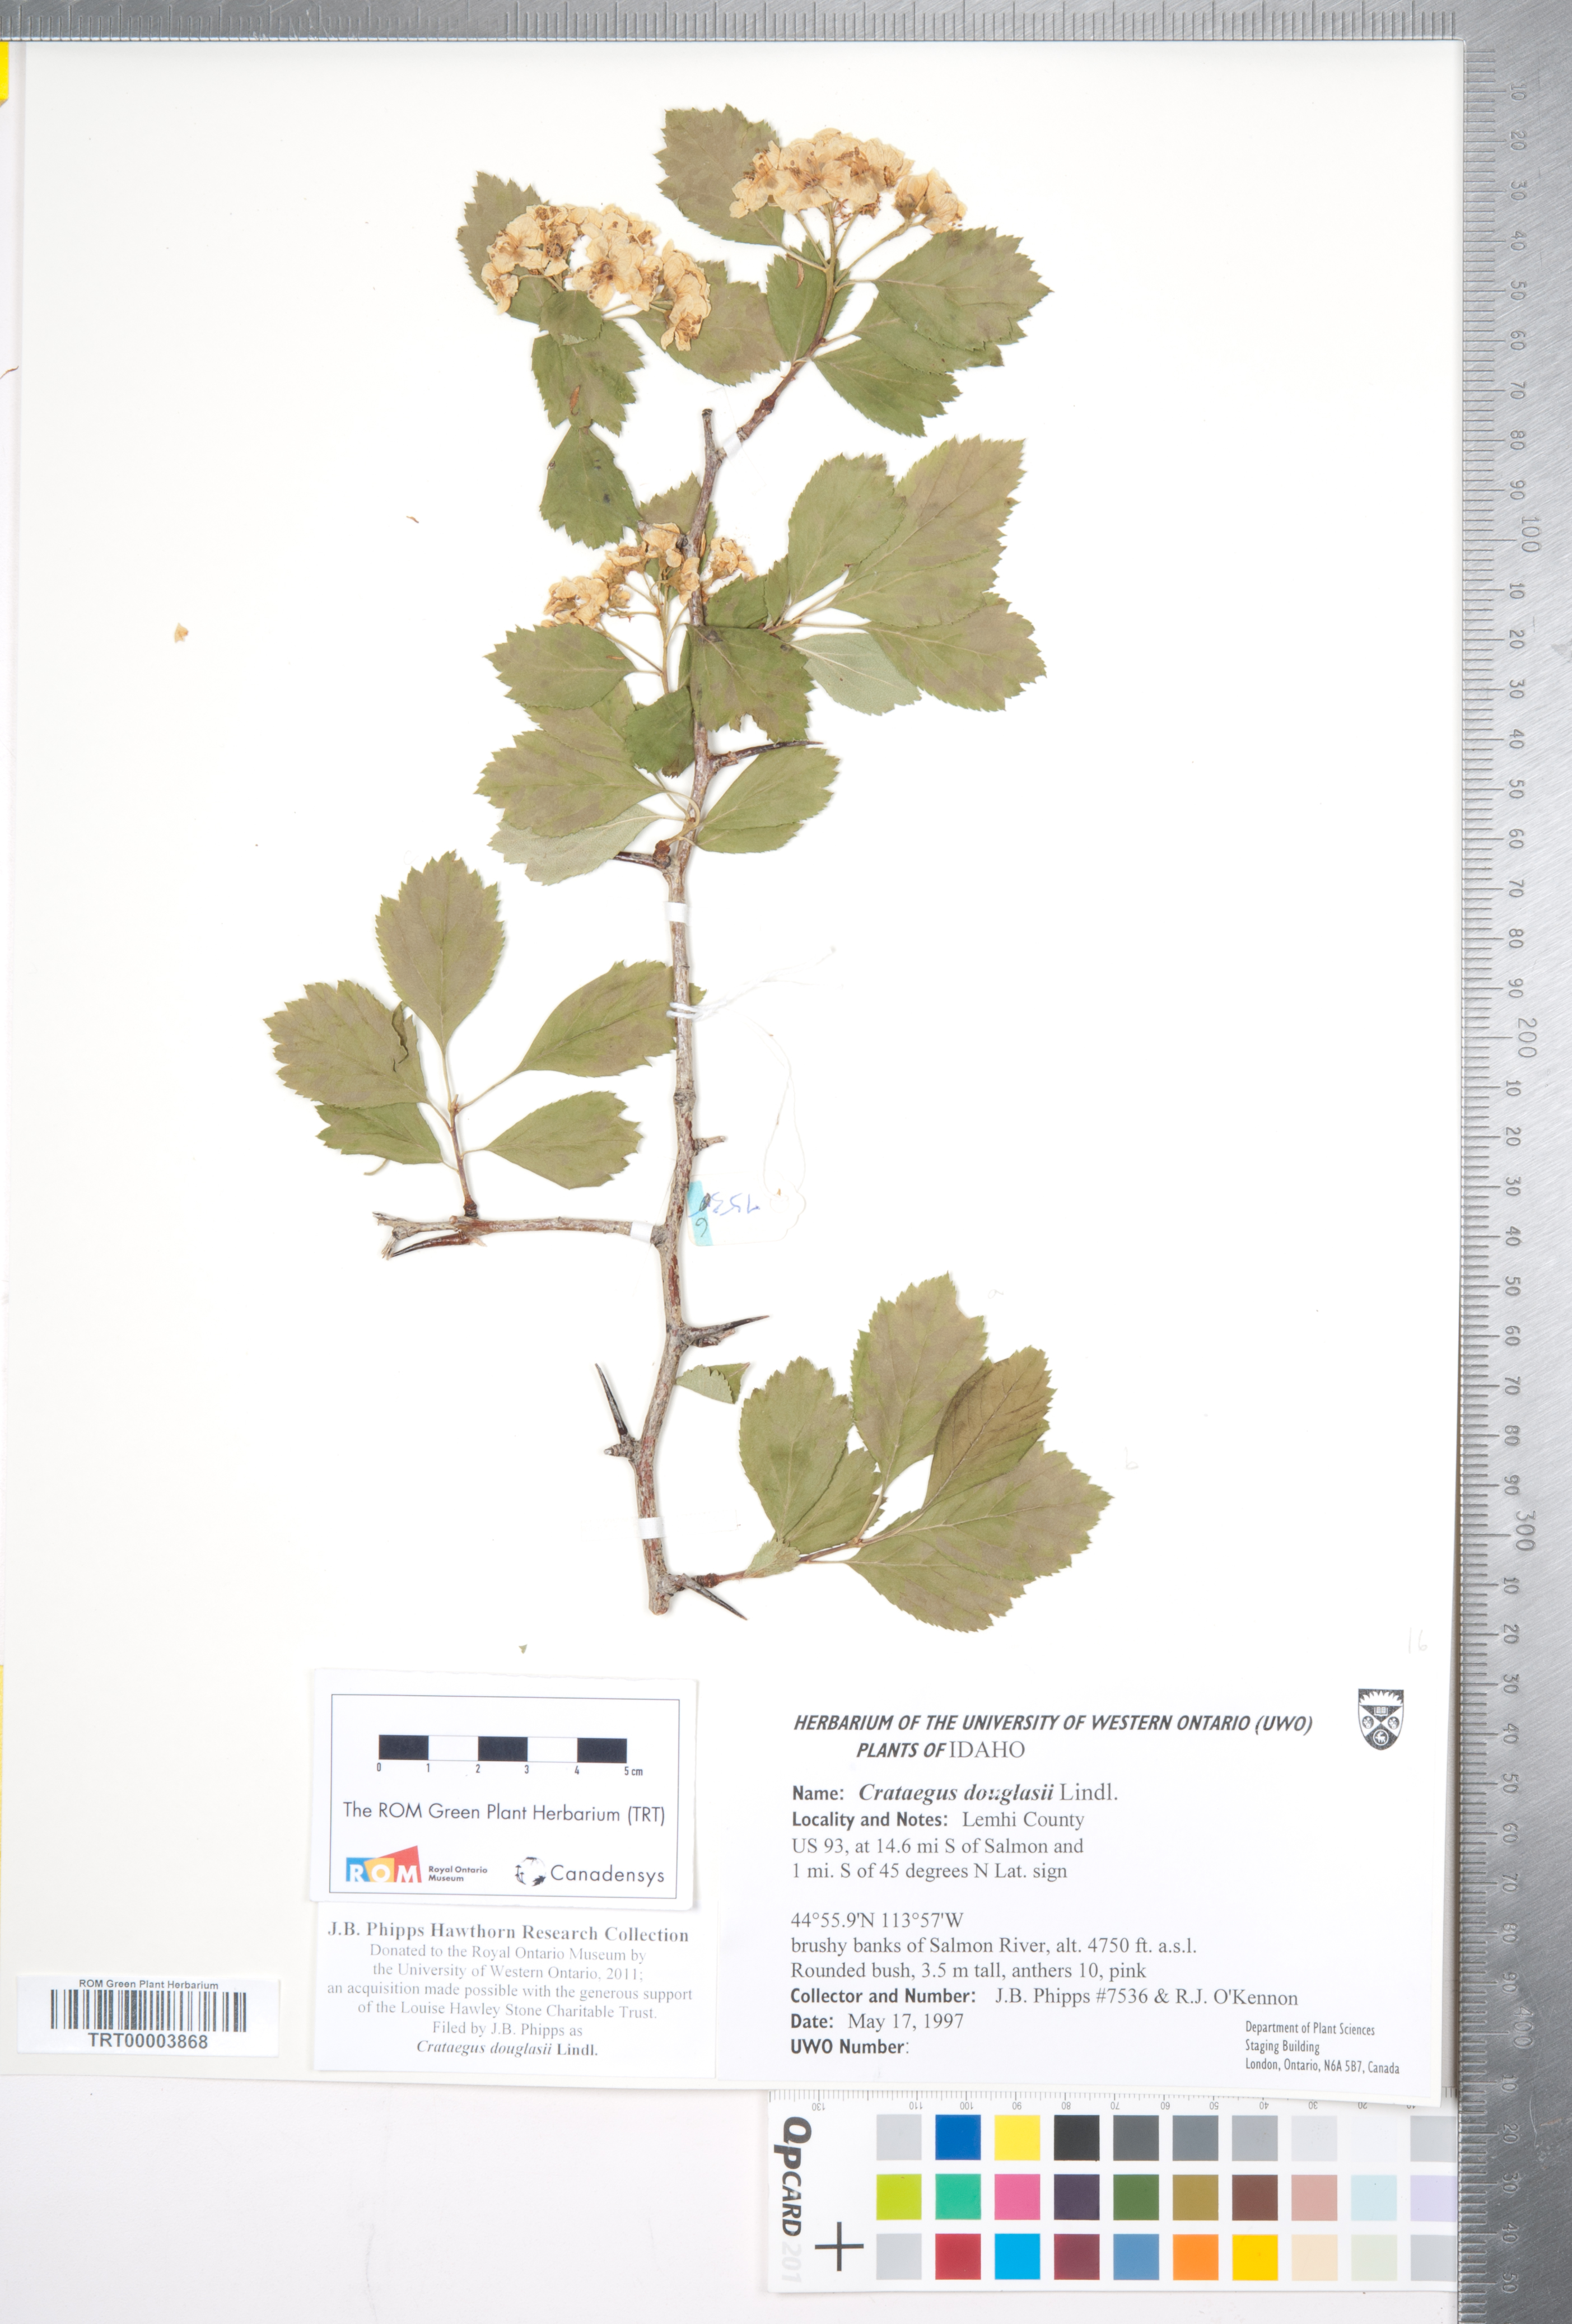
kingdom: Plantae
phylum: Tracheophyta
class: Magnoliopsida
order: Rosales
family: Rosaceae
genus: Crataegus
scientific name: Crataegus douglasii
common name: Black hawthorn
